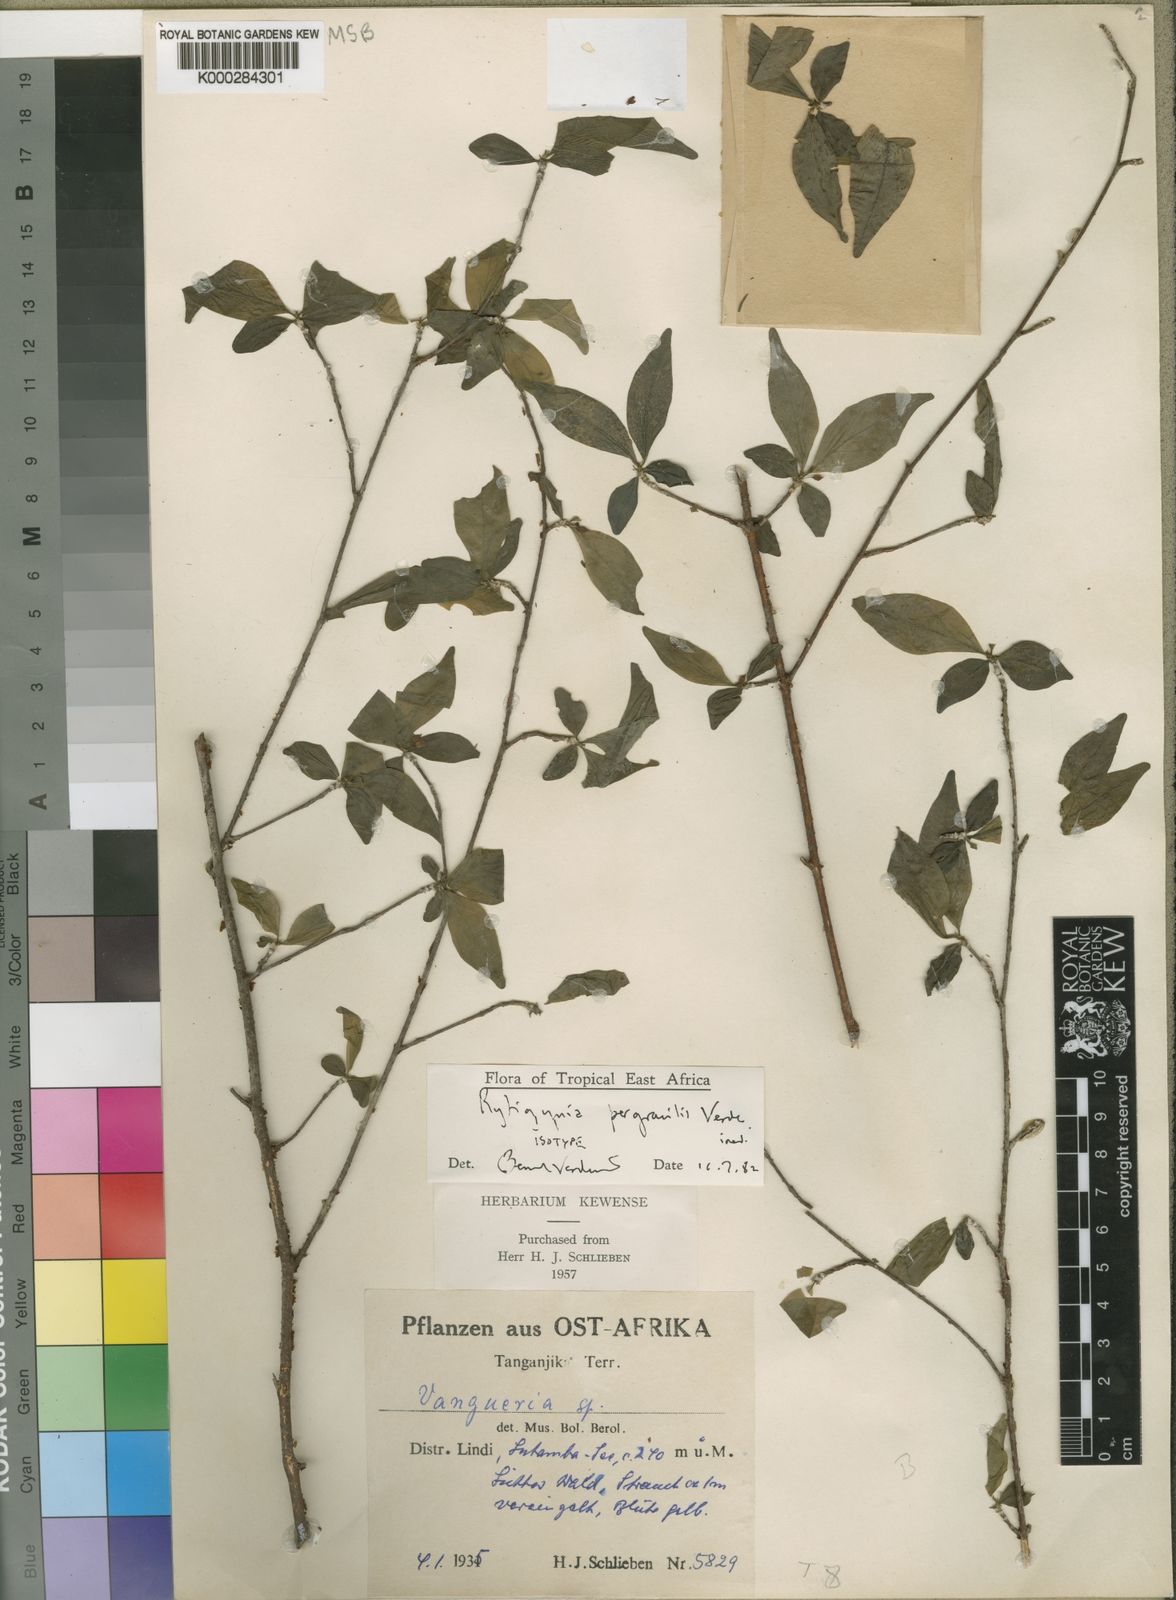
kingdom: Plantae
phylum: Tracheophyta
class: Magnoliopsida
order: Gentianales
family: Rubiaceae
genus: Rytigynia
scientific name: Rytigynia pergracilis
